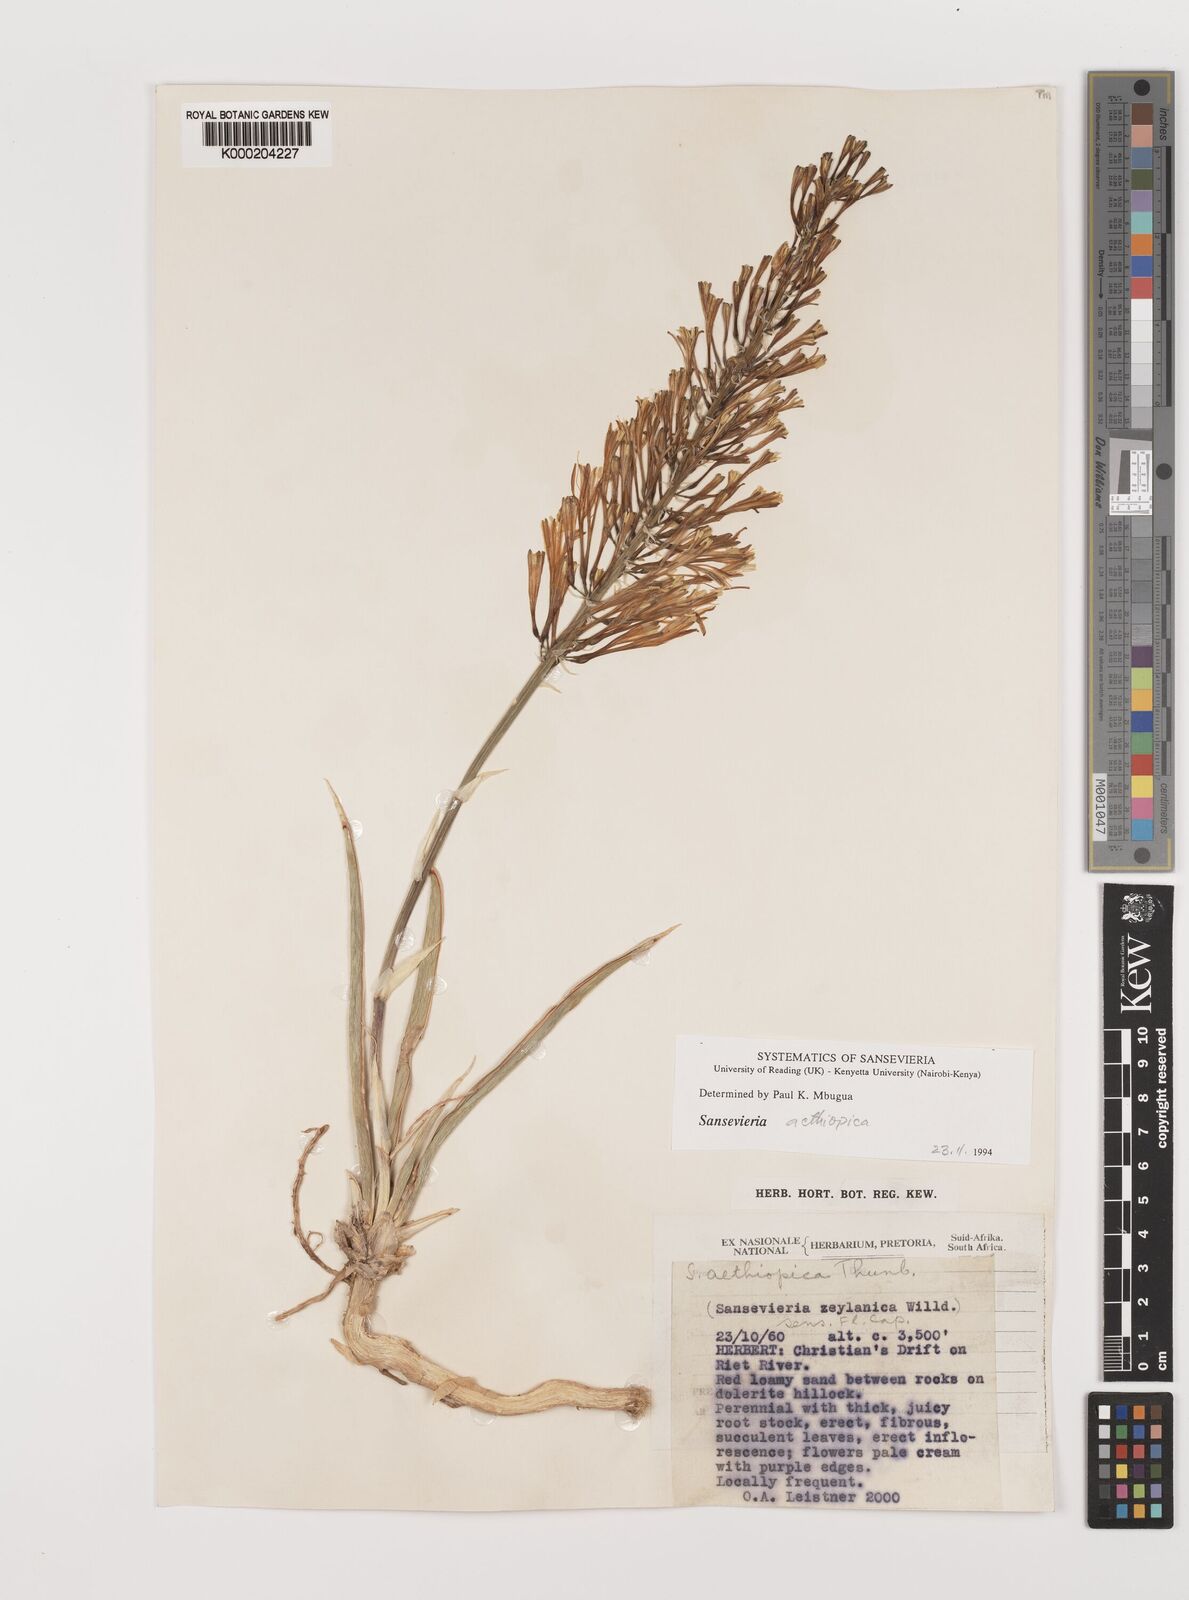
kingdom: Plantae
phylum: Tracheophyta
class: Liliopsida
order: Asparagales
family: Asparagaceae
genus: Dracaena
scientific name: Dracaena aethiopica
